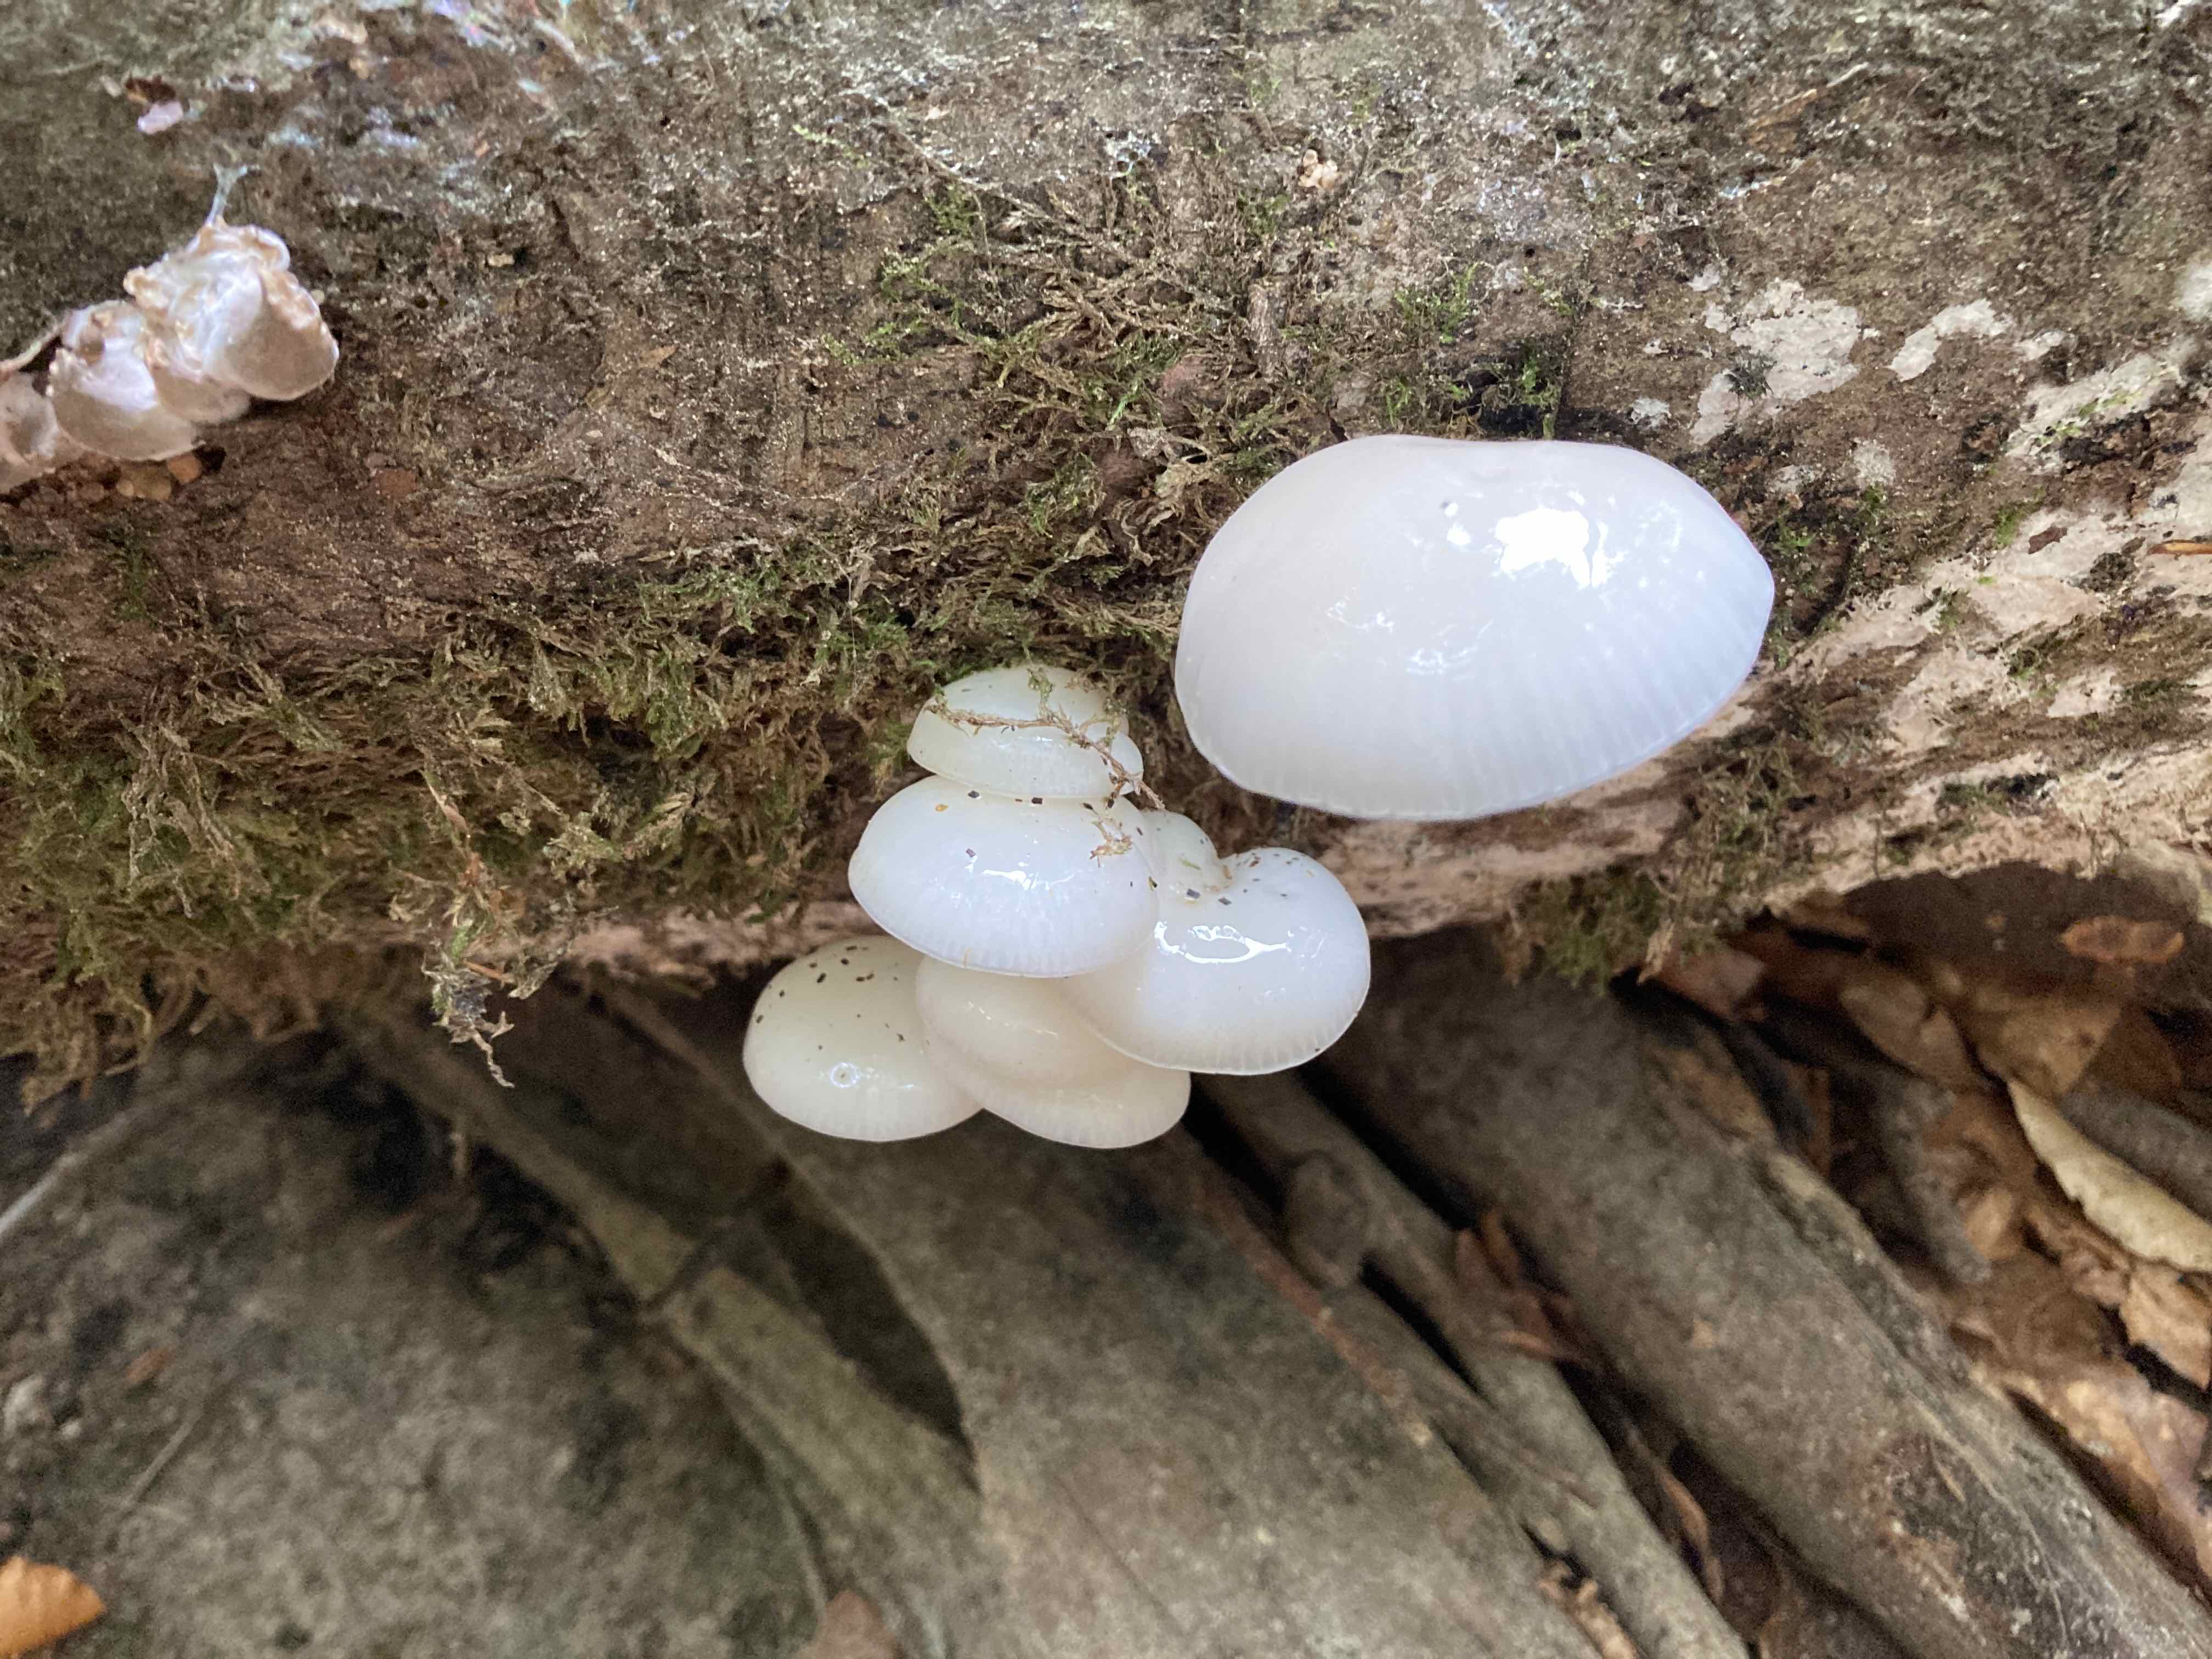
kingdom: Fungi
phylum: Basidiomycota
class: Agaricomycetes
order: Agaricales
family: Physalacriaceae
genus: Mucidula
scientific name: Mucidula mucida
